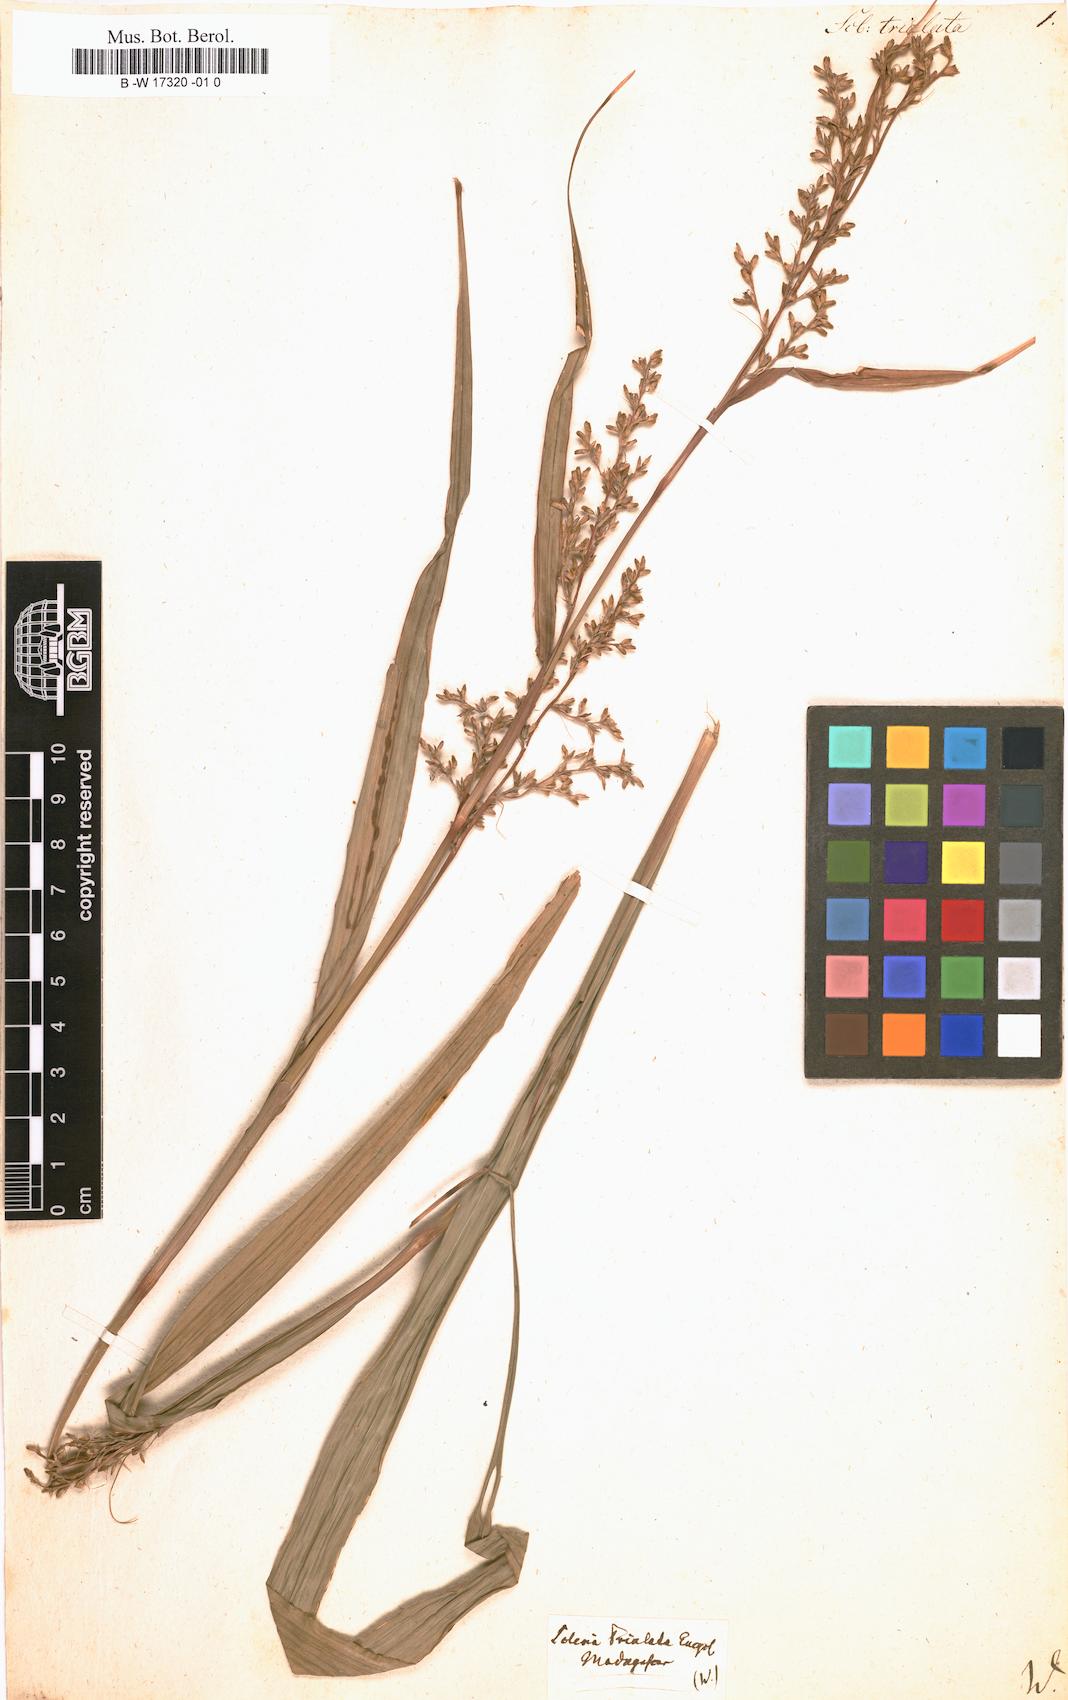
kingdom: Plantae
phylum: Tracheophyta
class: Liliopsida
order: Poales
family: Cyperaceae
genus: Scleria
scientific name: Scleria trialata
